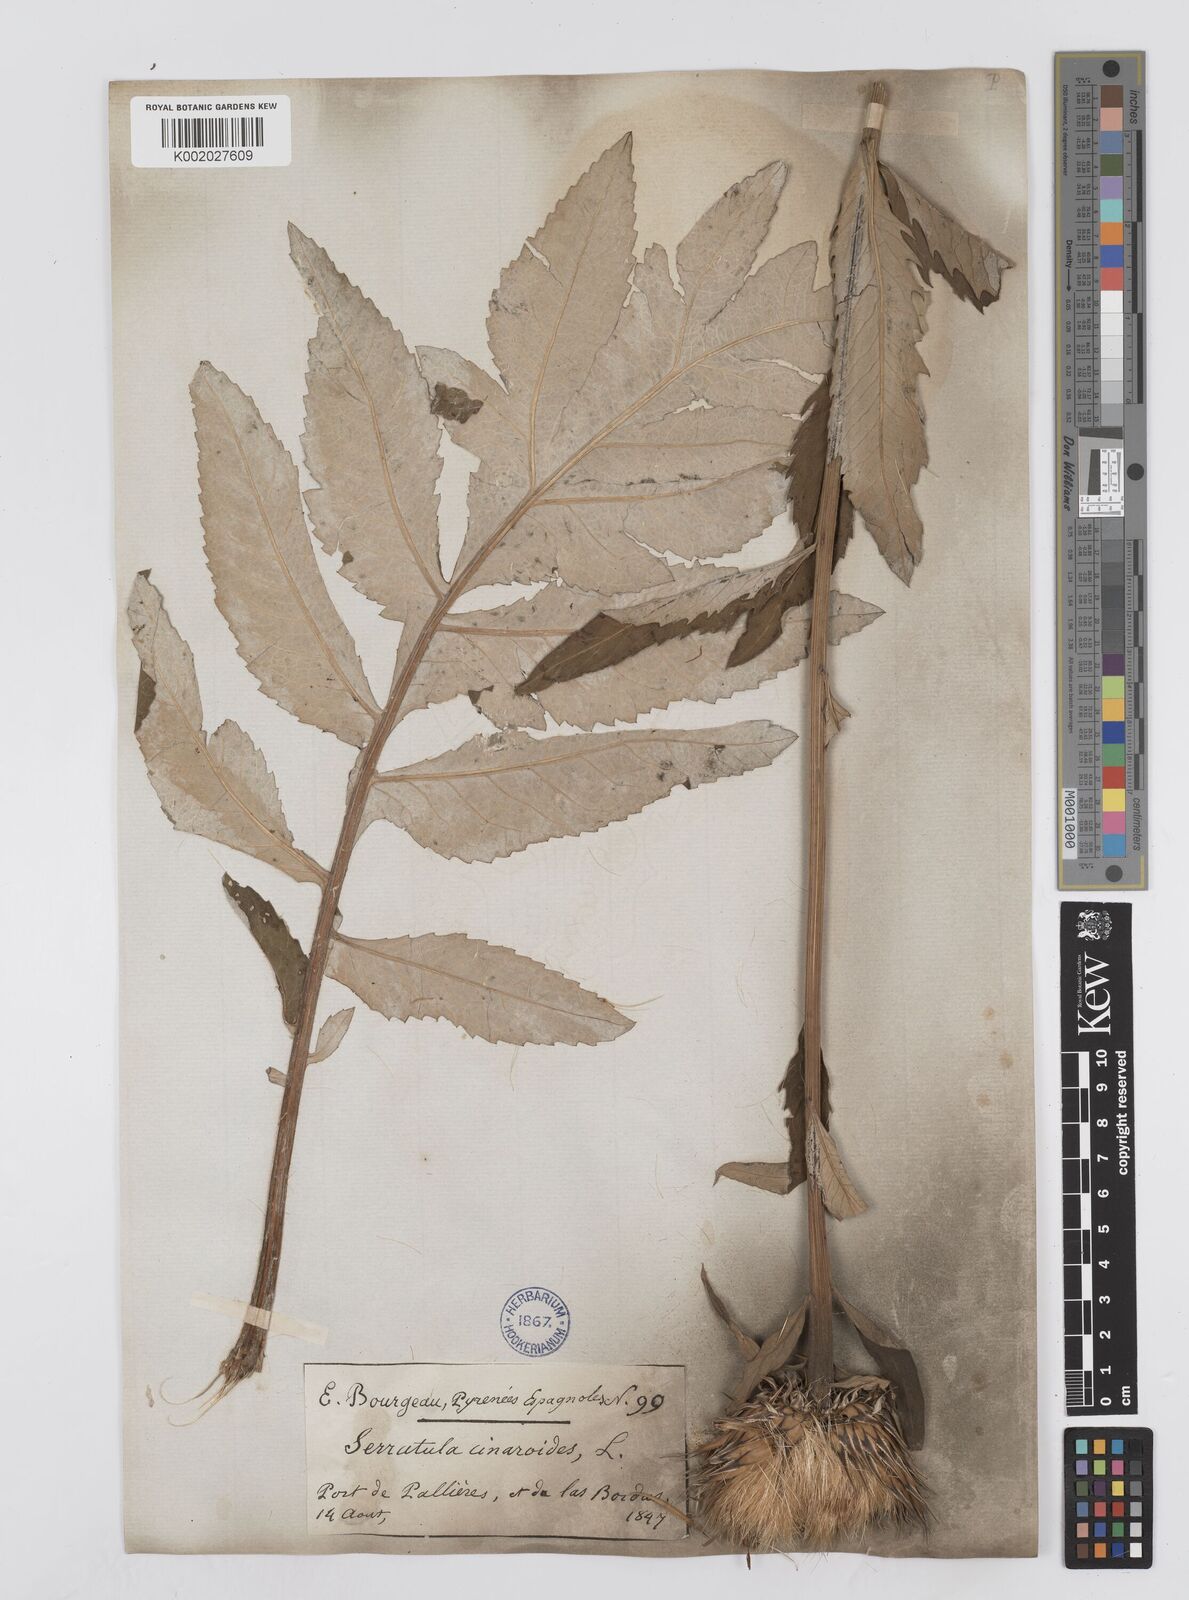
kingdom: Plantae
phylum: Tracheophyta
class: Magnoliopsida
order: Asterales
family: Asteraceae
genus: Leuzea
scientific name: Leuzea centauroides
